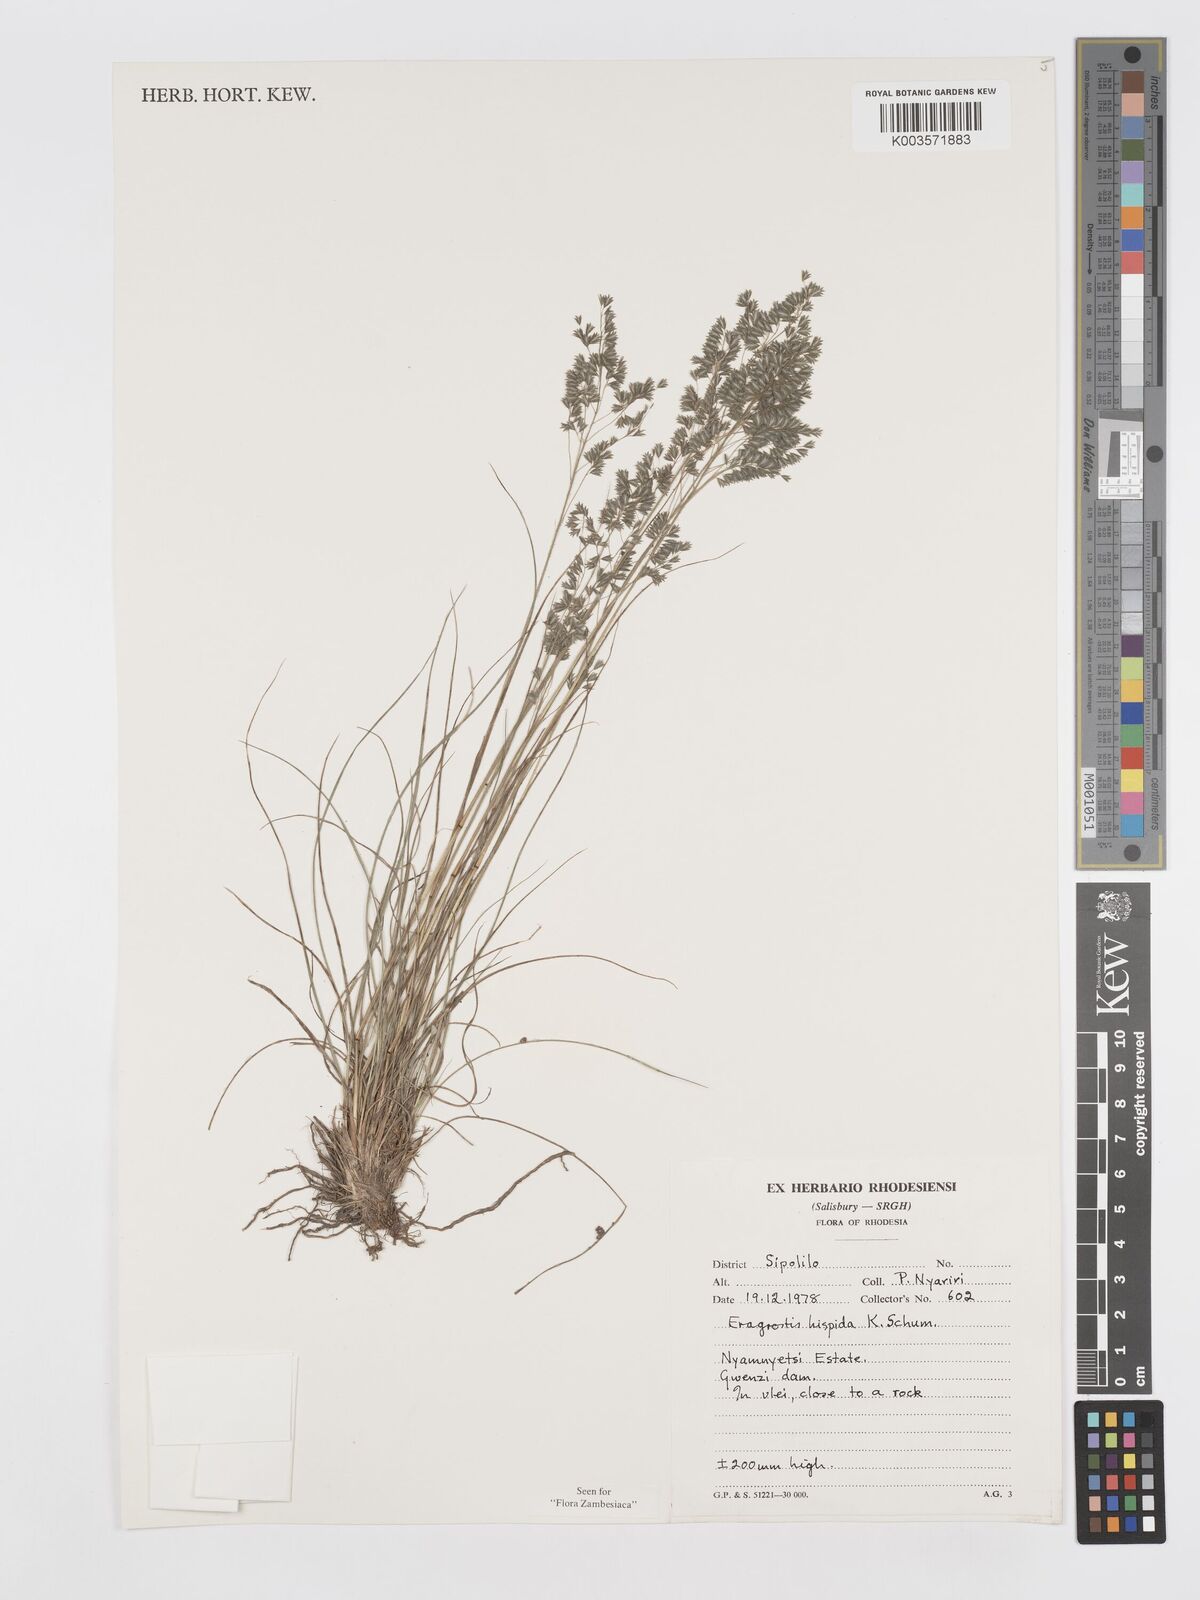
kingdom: Plantae
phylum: Tracheophyta
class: Liliopsida
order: Poales
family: Poaceae
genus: Eragrostis
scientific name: Eragrostis hispida
